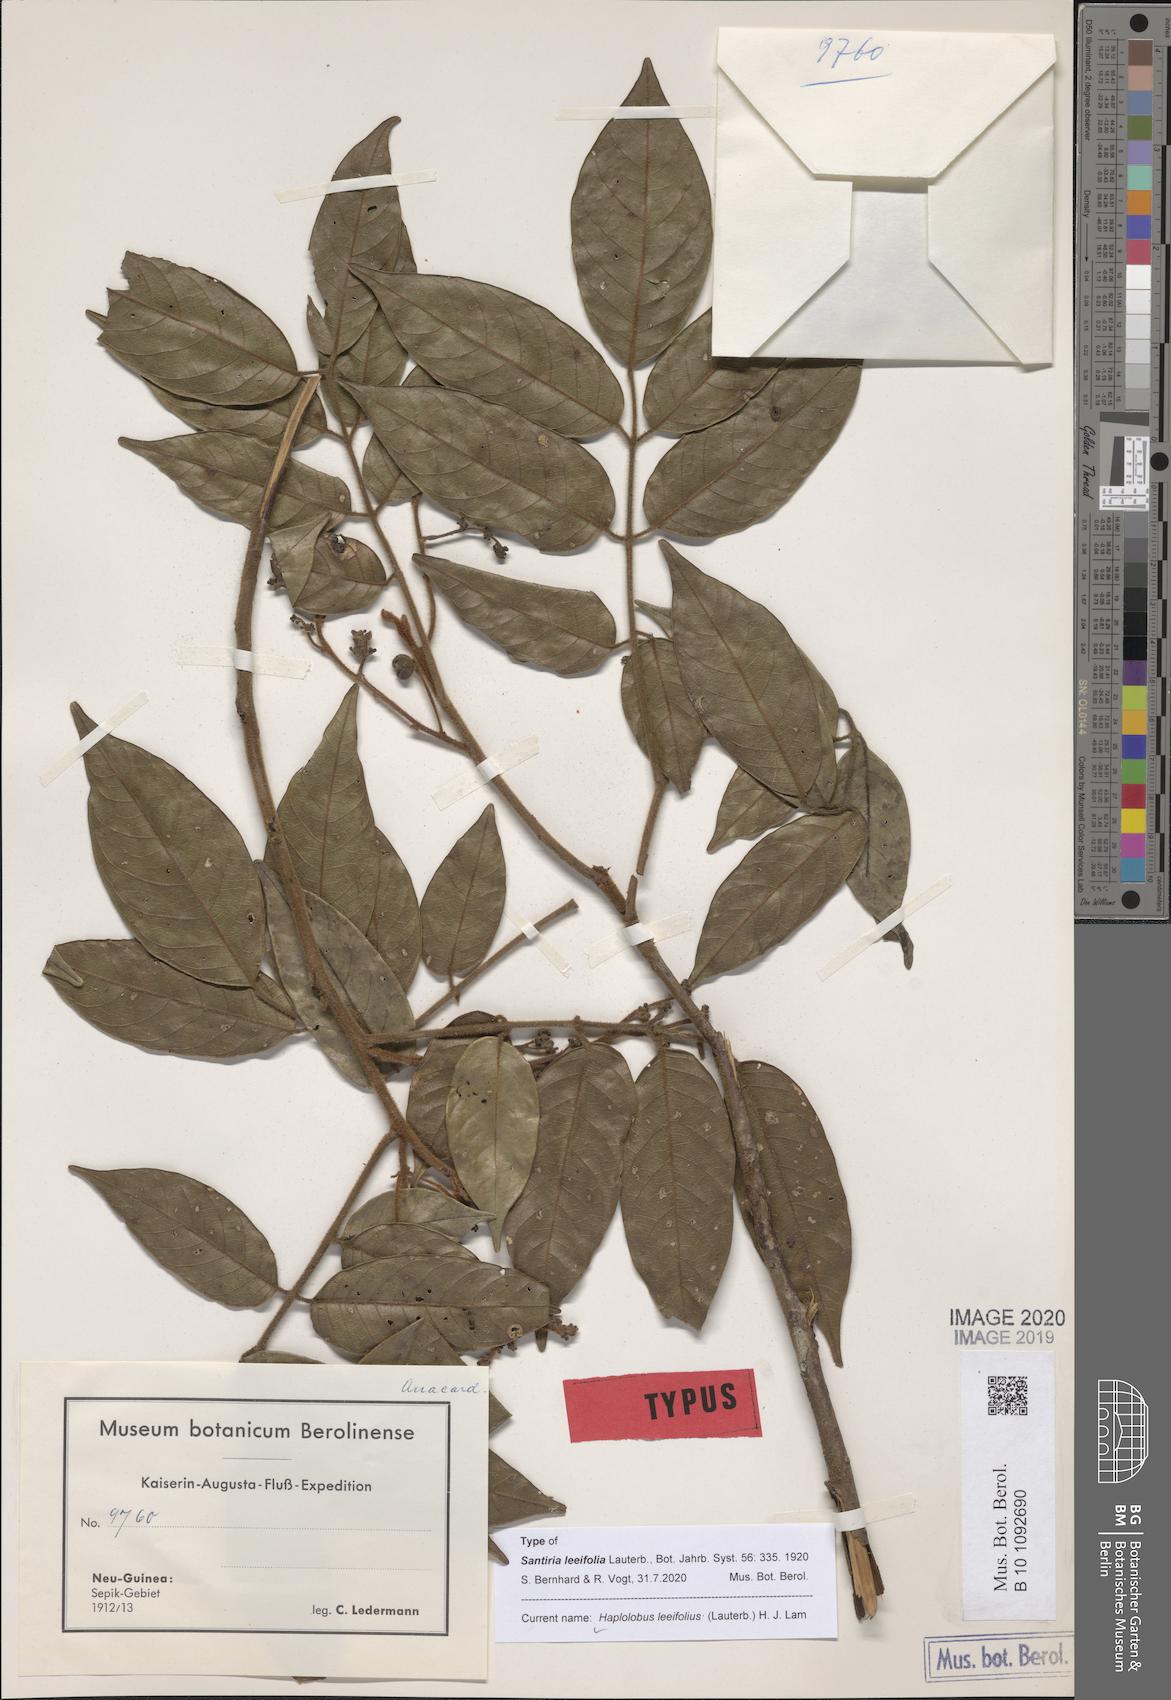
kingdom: Plantae
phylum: Tracheophyta
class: Magnoliopsida
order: Sapindales
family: Burseraceae
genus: Haplolobus
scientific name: Haplolobus leeifolius
